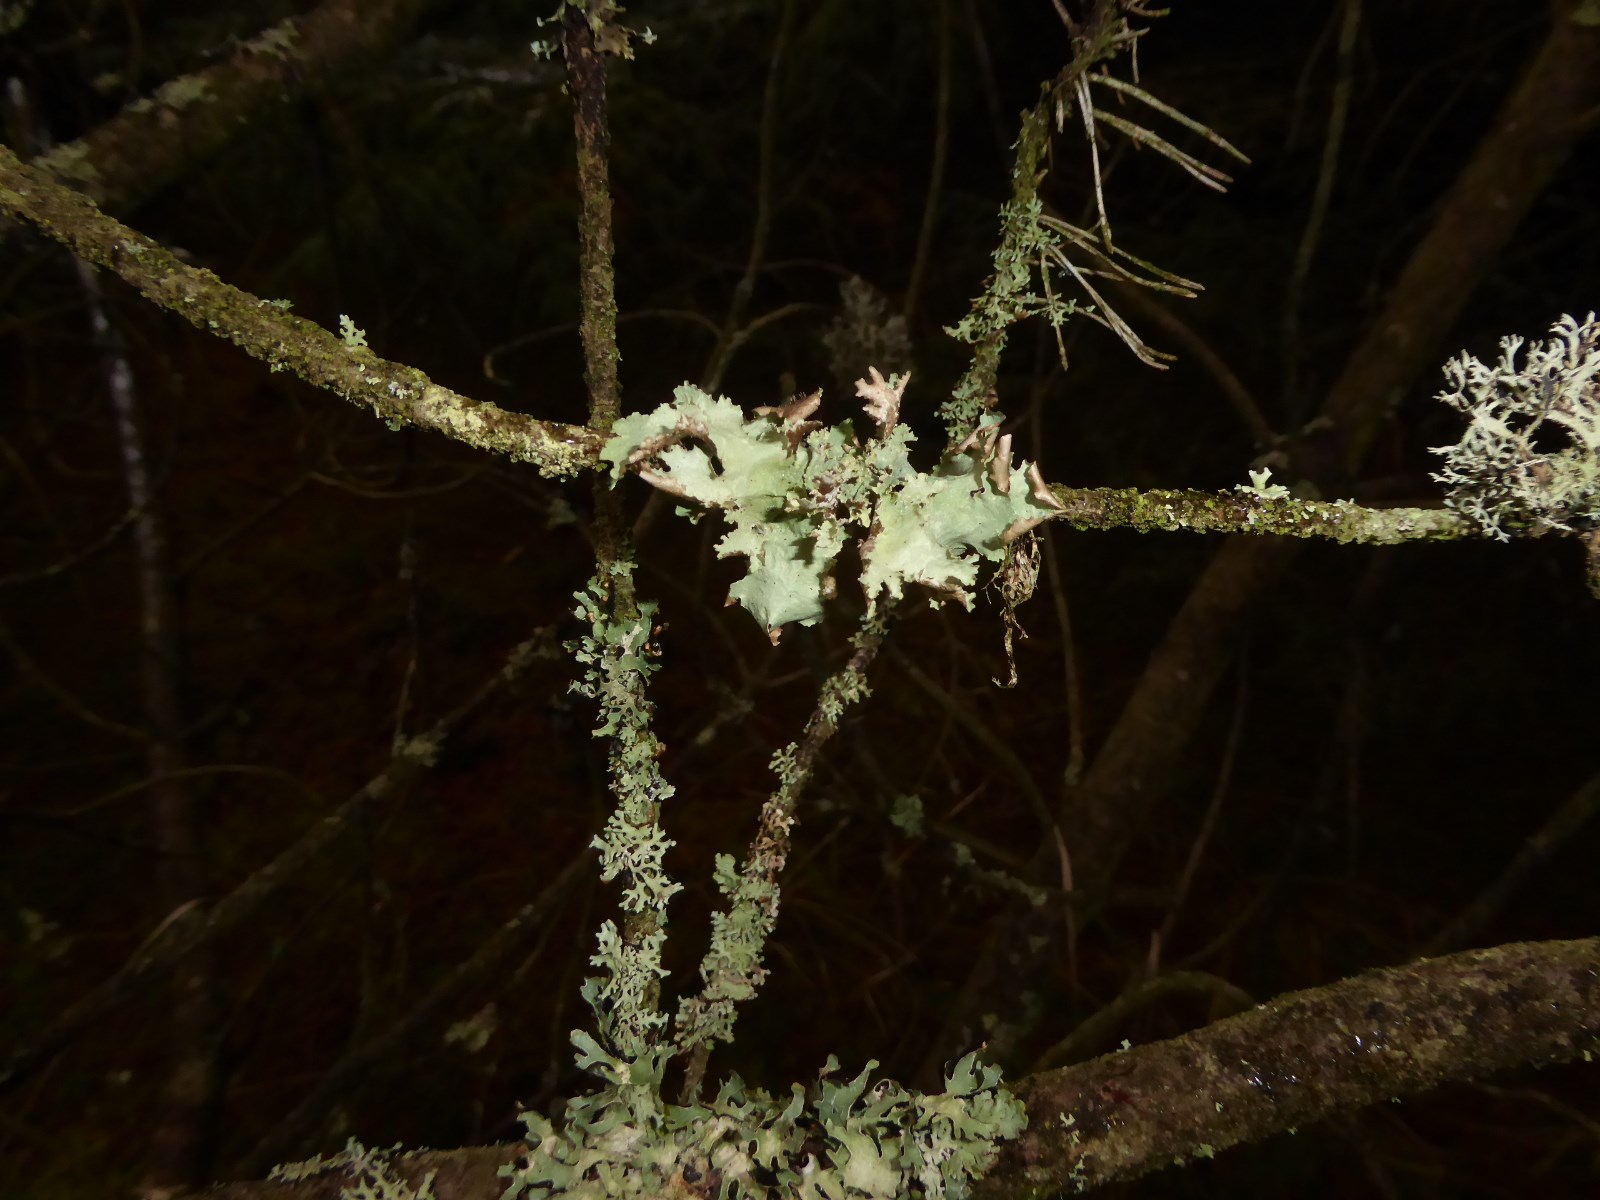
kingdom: Fungi
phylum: Ascomycota
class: Lecanoromycetes
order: Lecanorales
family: Parmeliaceae
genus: Platismatia
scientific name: Platismatia glauca
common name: blågrå papirlav
